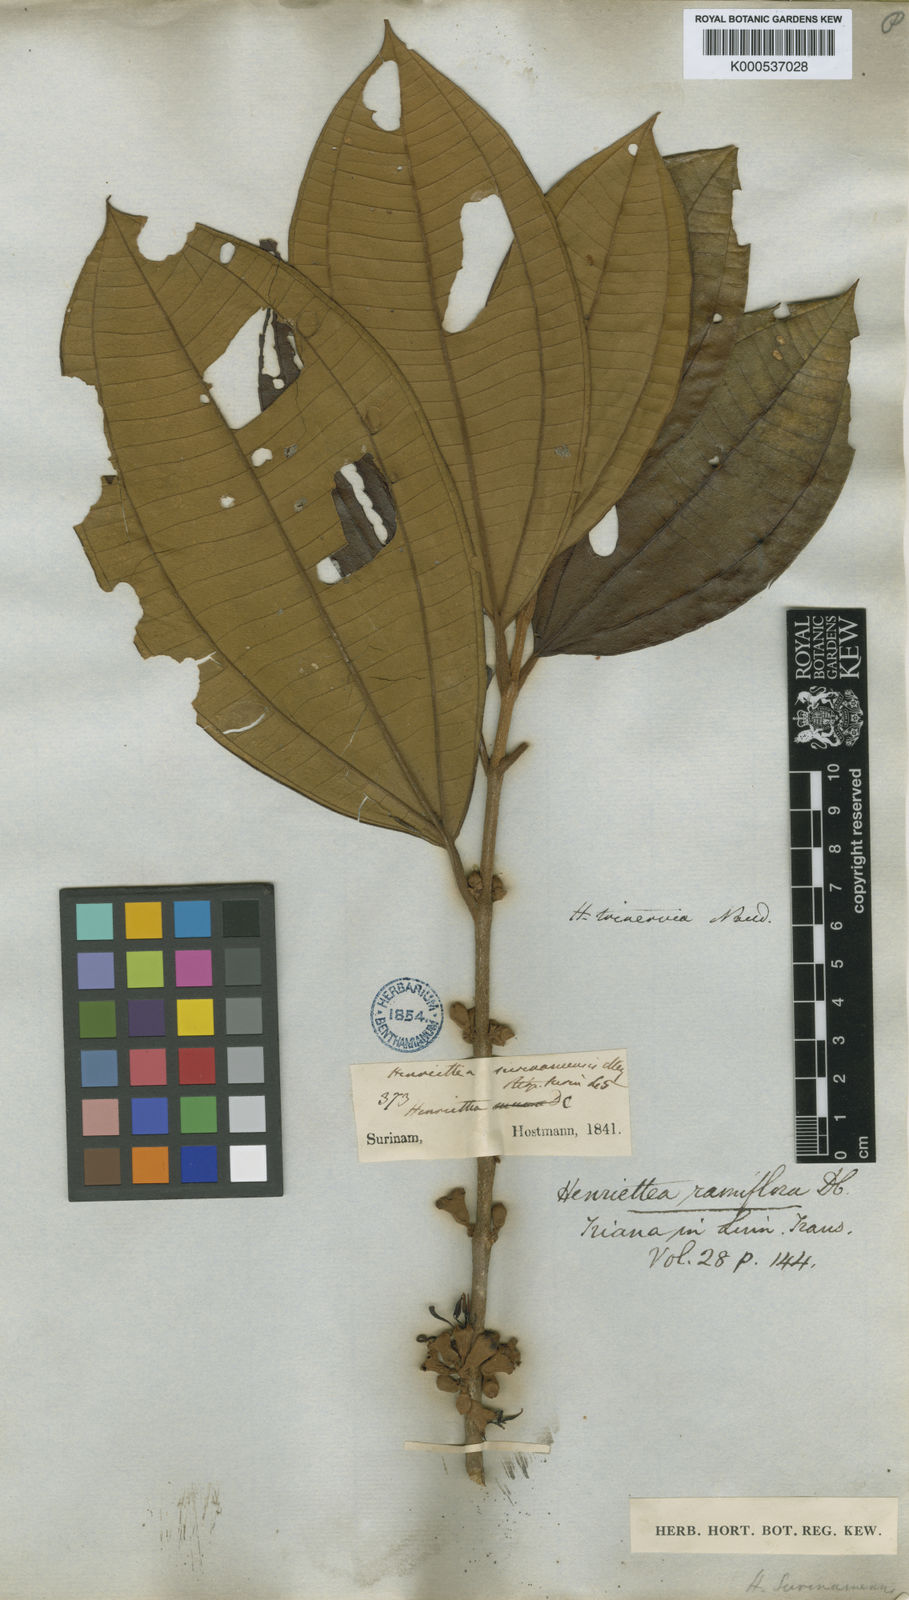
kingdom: Plantae
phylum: Tracheophyta
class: Magnoliopsida
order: Myrtales
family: Melastomataceae
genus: Henriettea
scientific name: Henriettea ramiflora
